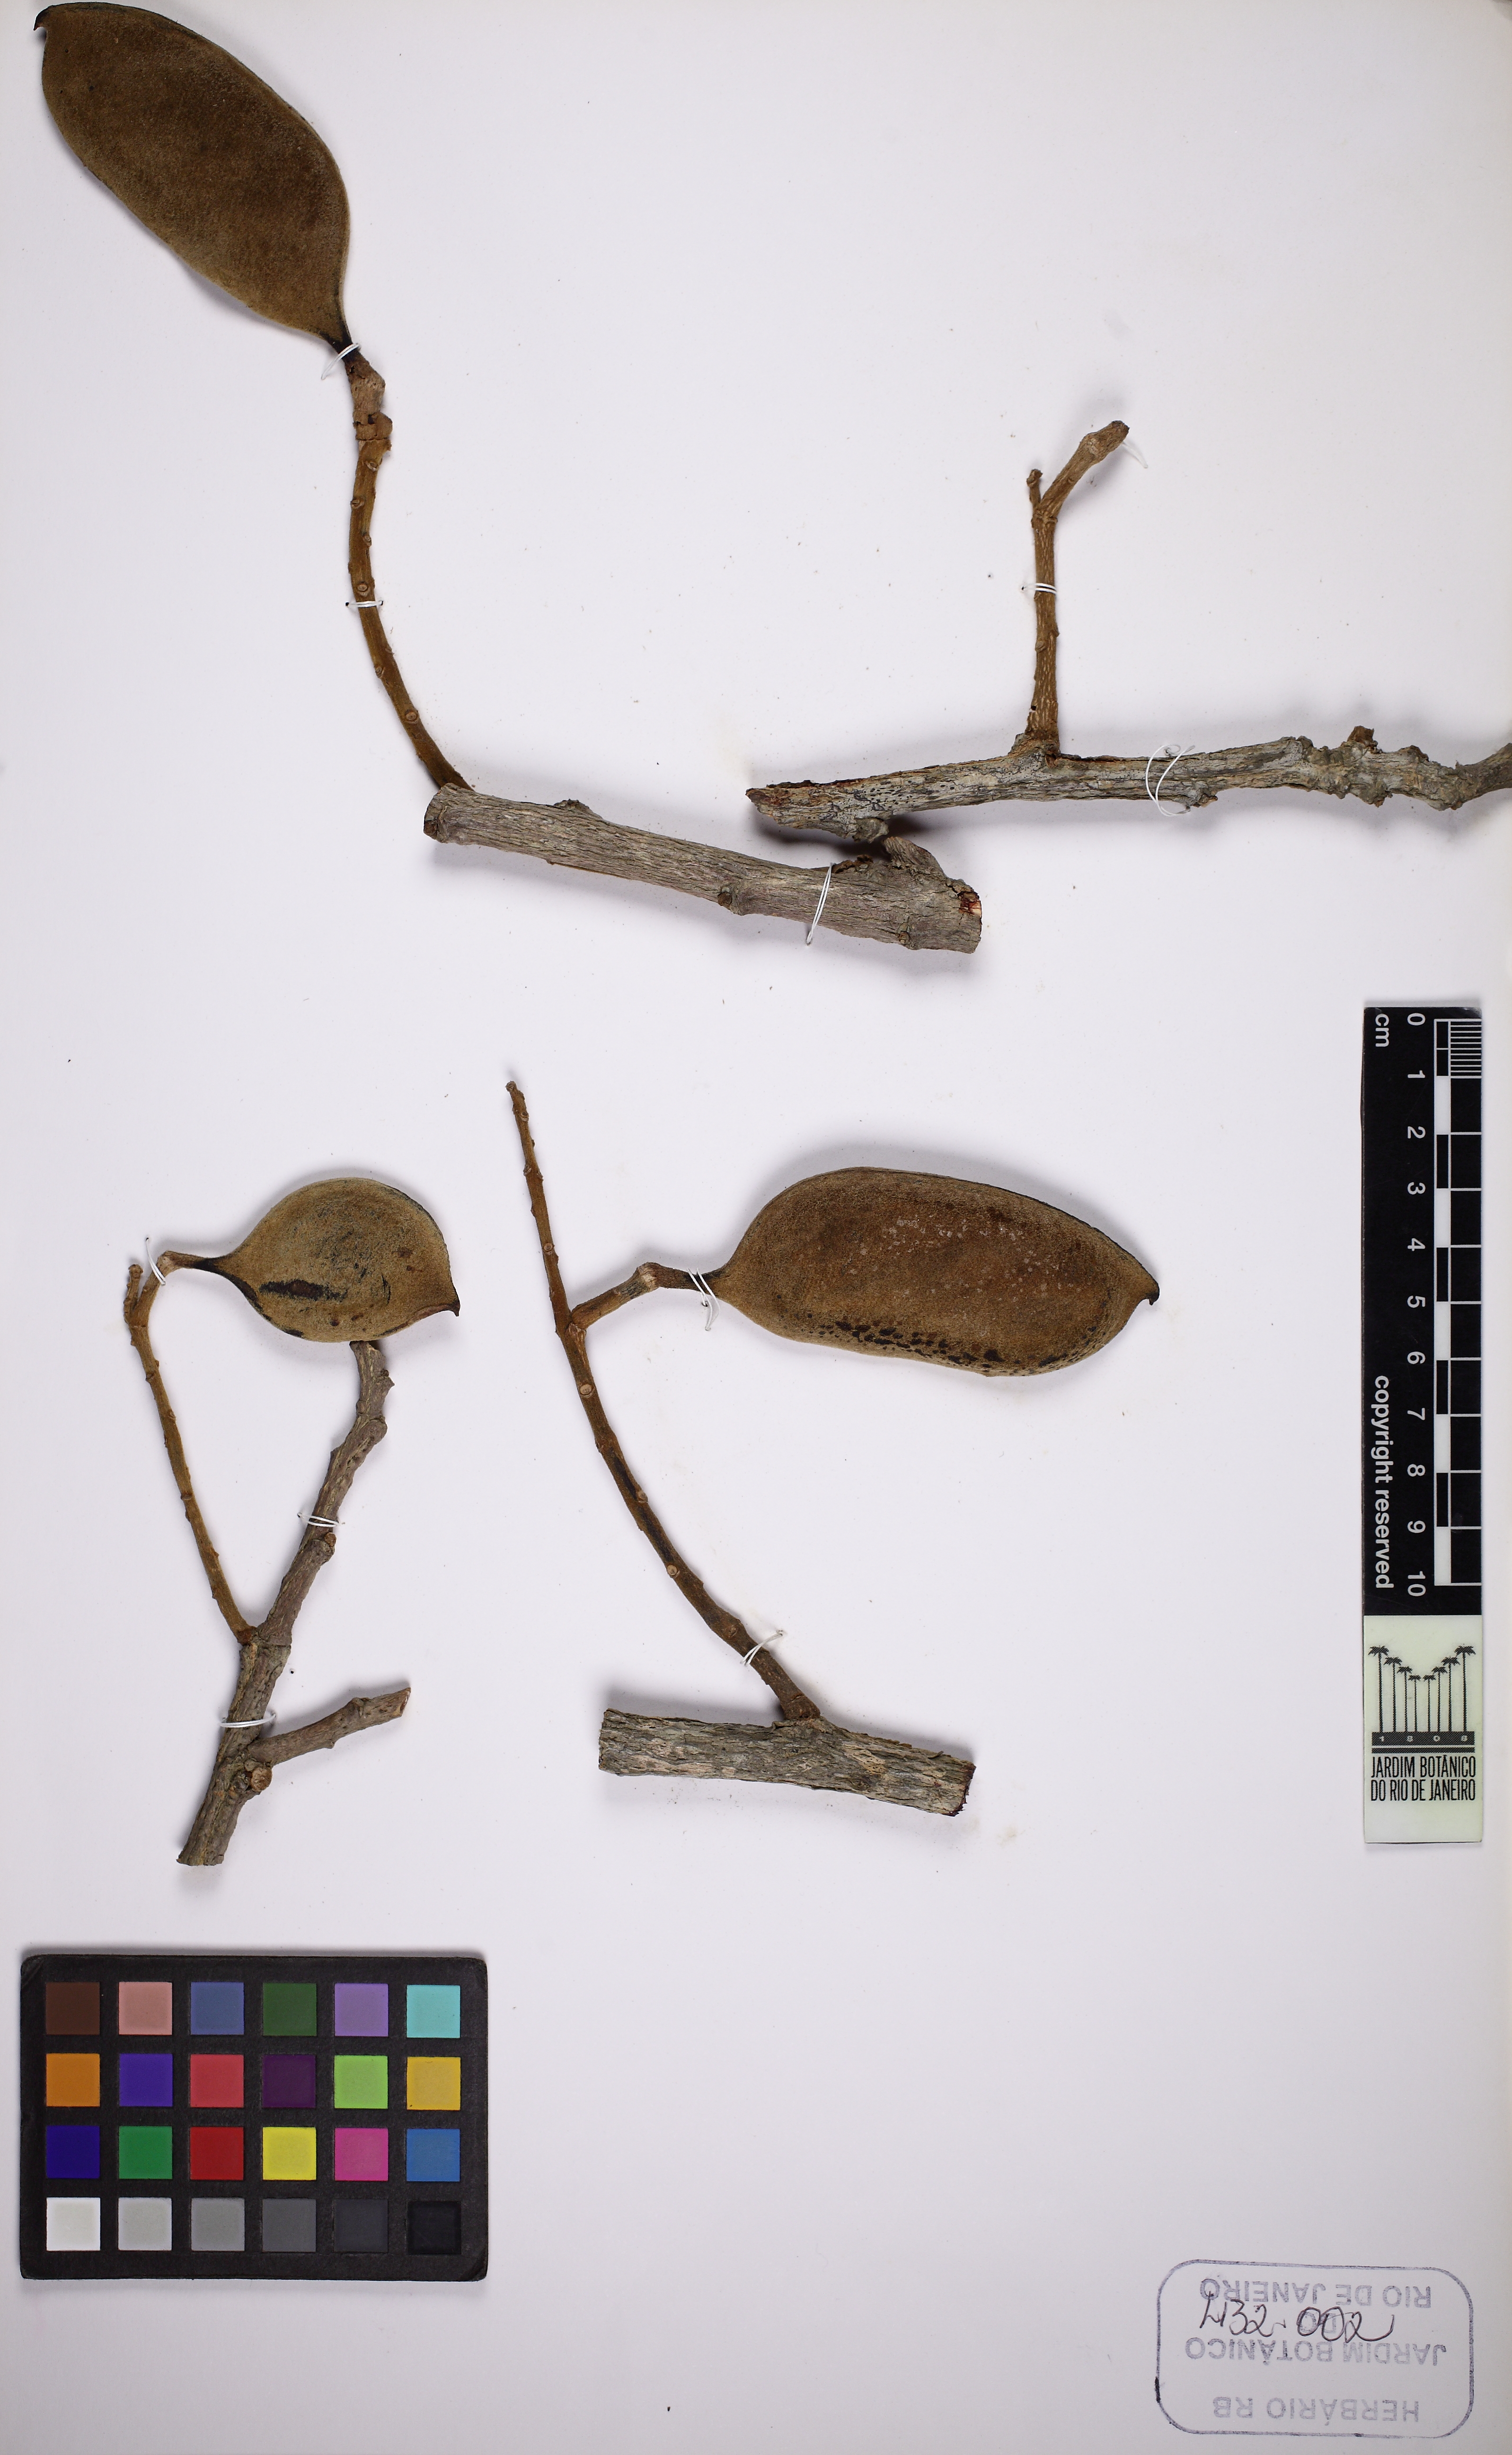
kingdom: Plantae
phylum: Tracheophyta
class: Magnoliopsida
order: Piperales
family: Piperaceae
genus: Piper
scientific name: Piper caldense
